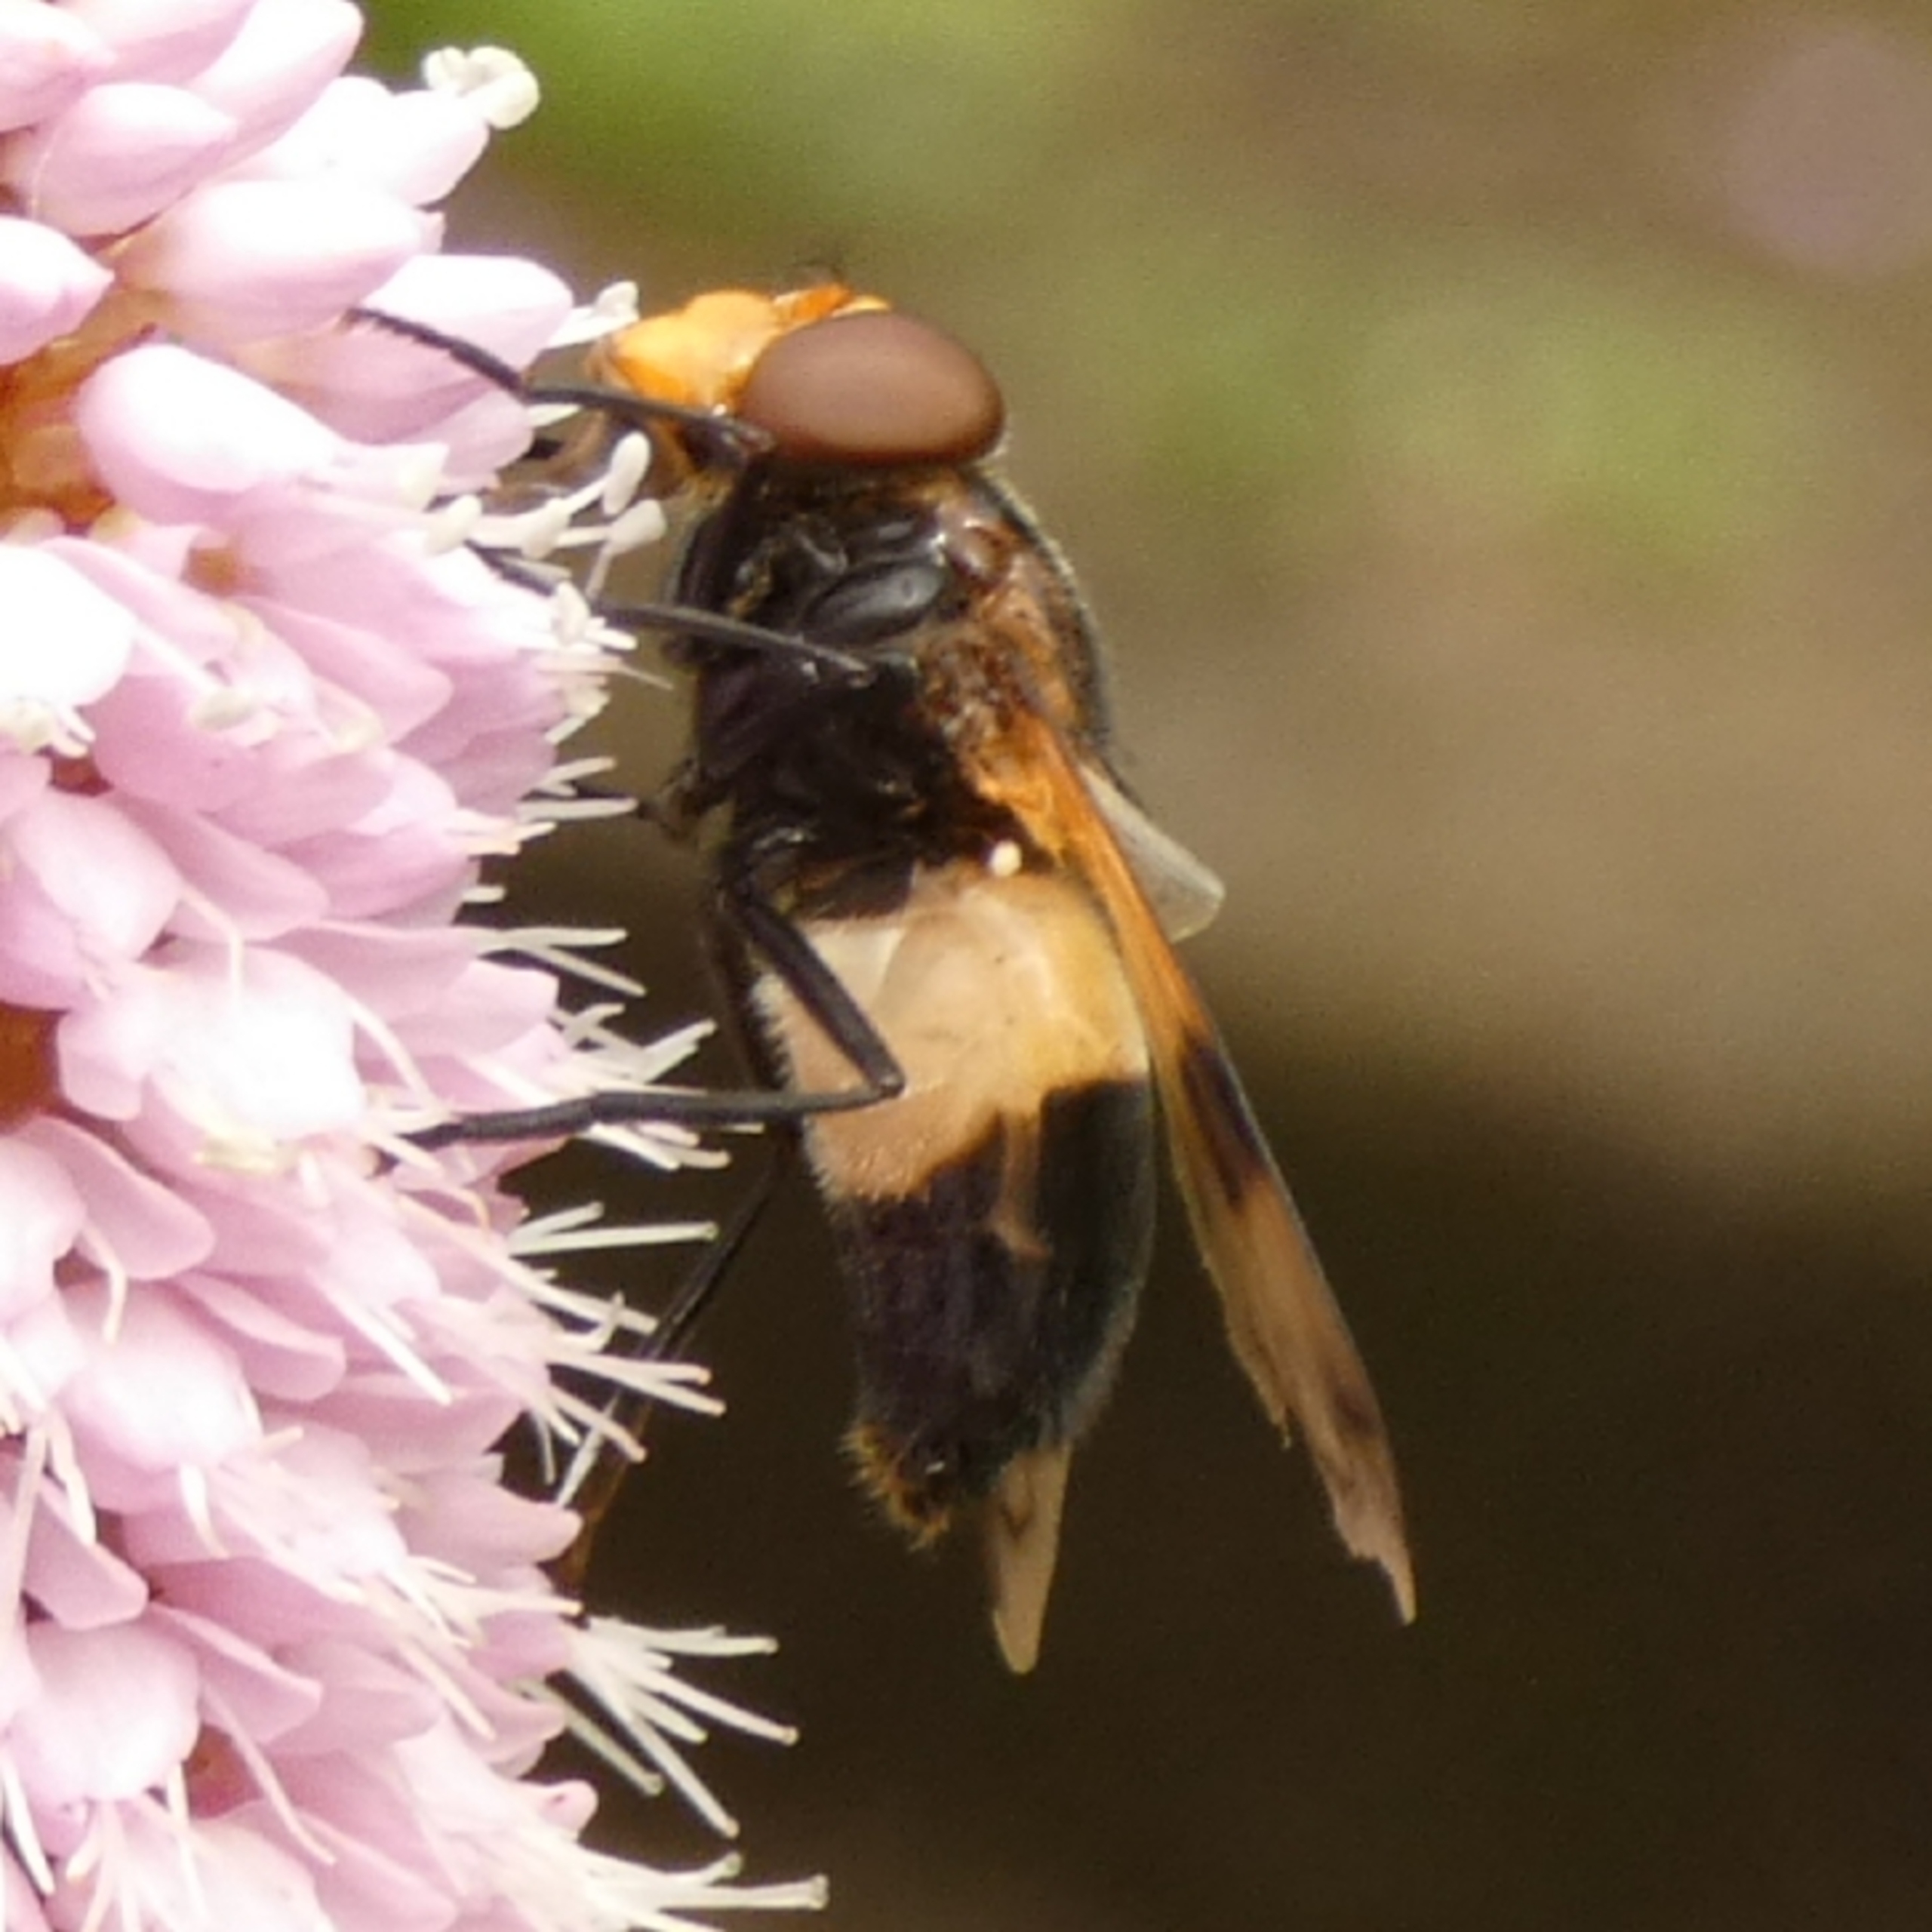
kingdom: Animalia
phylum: Arthropoda
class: Insecta
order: Diptera
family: Syrphidae
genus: Volucella
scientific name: Volucella pellucens
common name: Hvidbåndet humlesvirreflue
